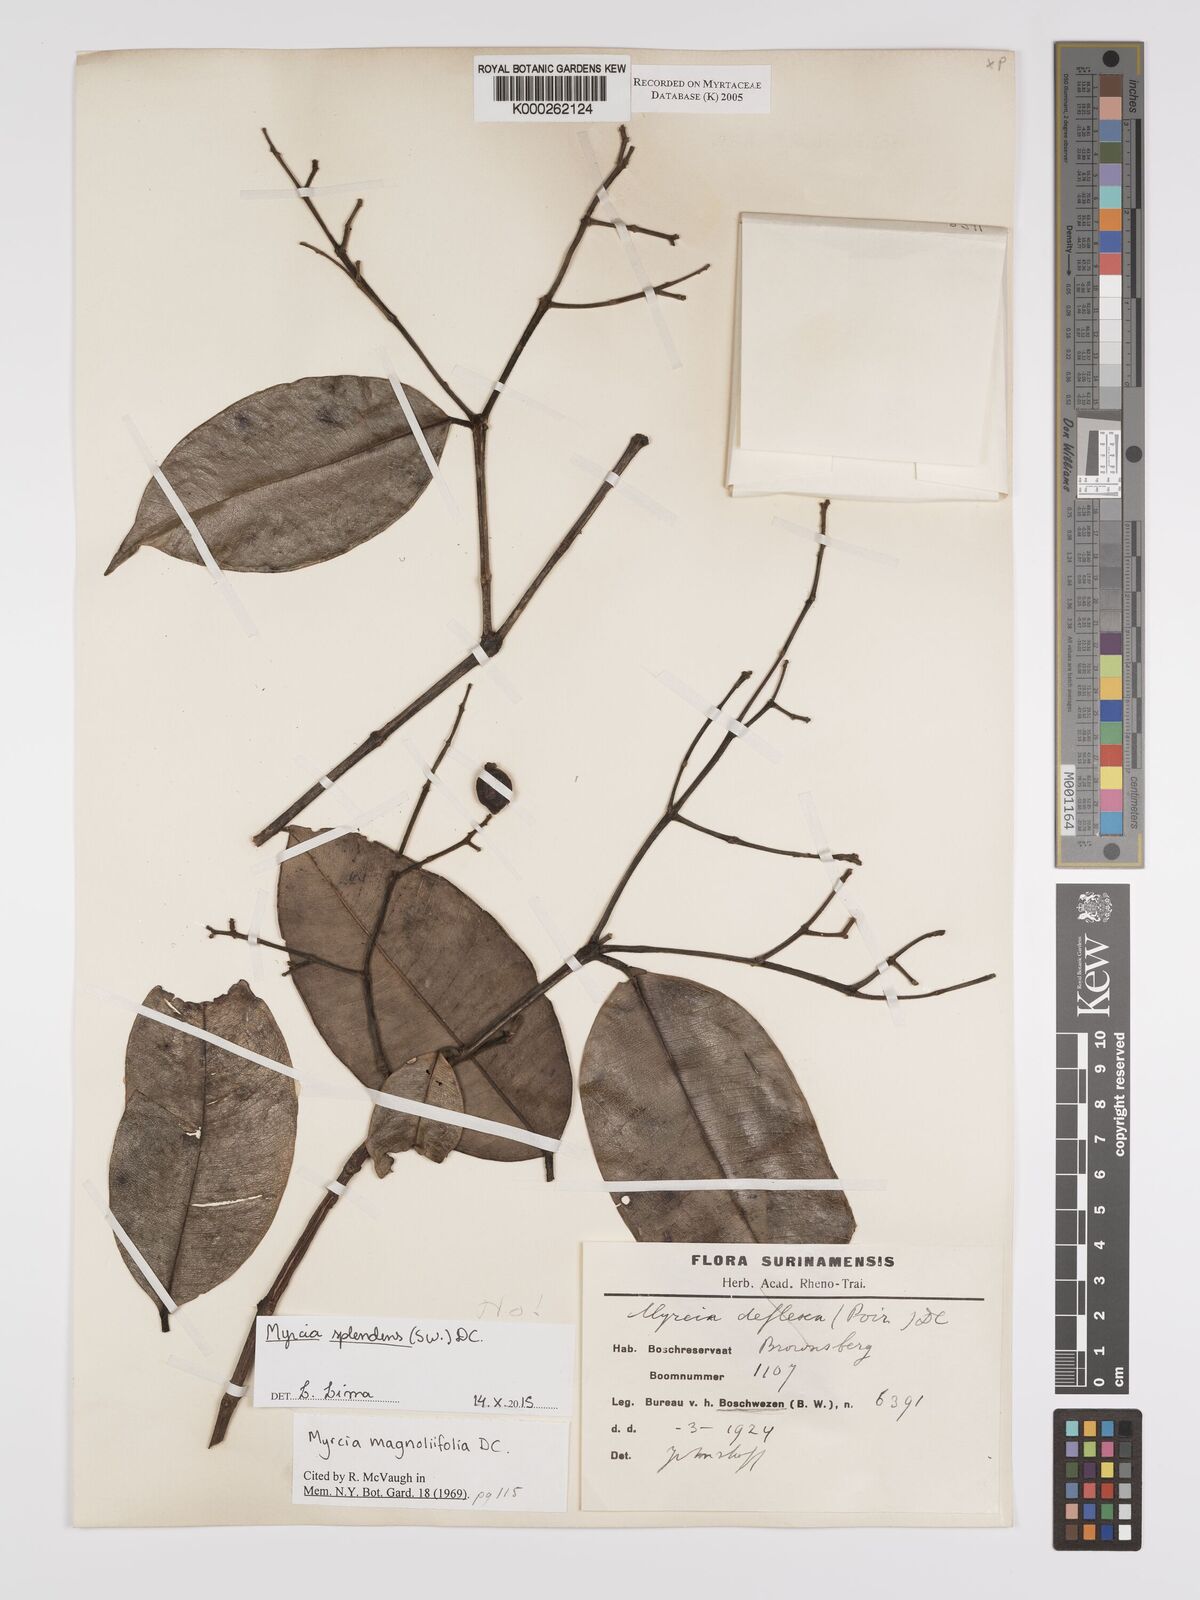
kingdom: Plantae
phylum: Tracheophyta
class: Magnoliopsida
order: Myrtales
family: Myrtaceae
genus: Myrcia
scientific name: Myrcia splendens
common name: Surinam cherry
